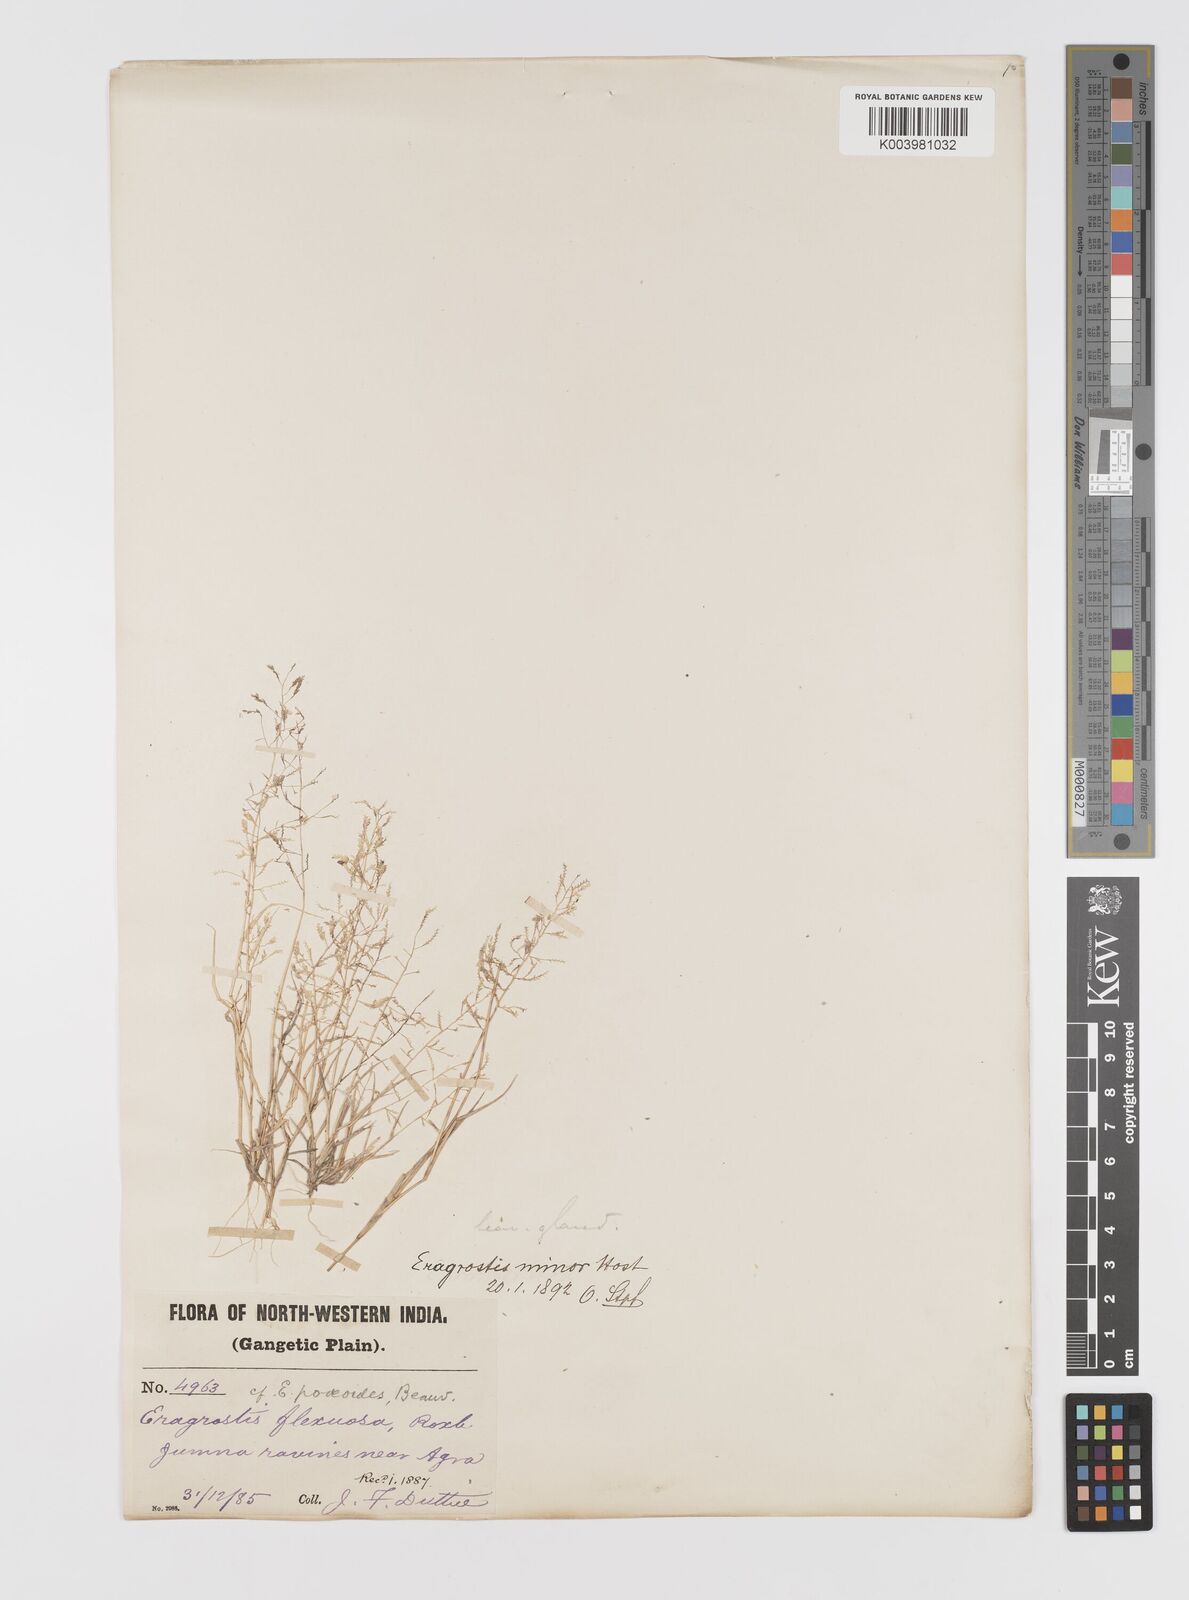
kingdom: Plantae
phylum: Tracheophyta
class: Liliopsida
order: Poales
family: Poaceae
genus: Eragrostis
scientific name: Eragrostis minor
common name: Small love-grass
